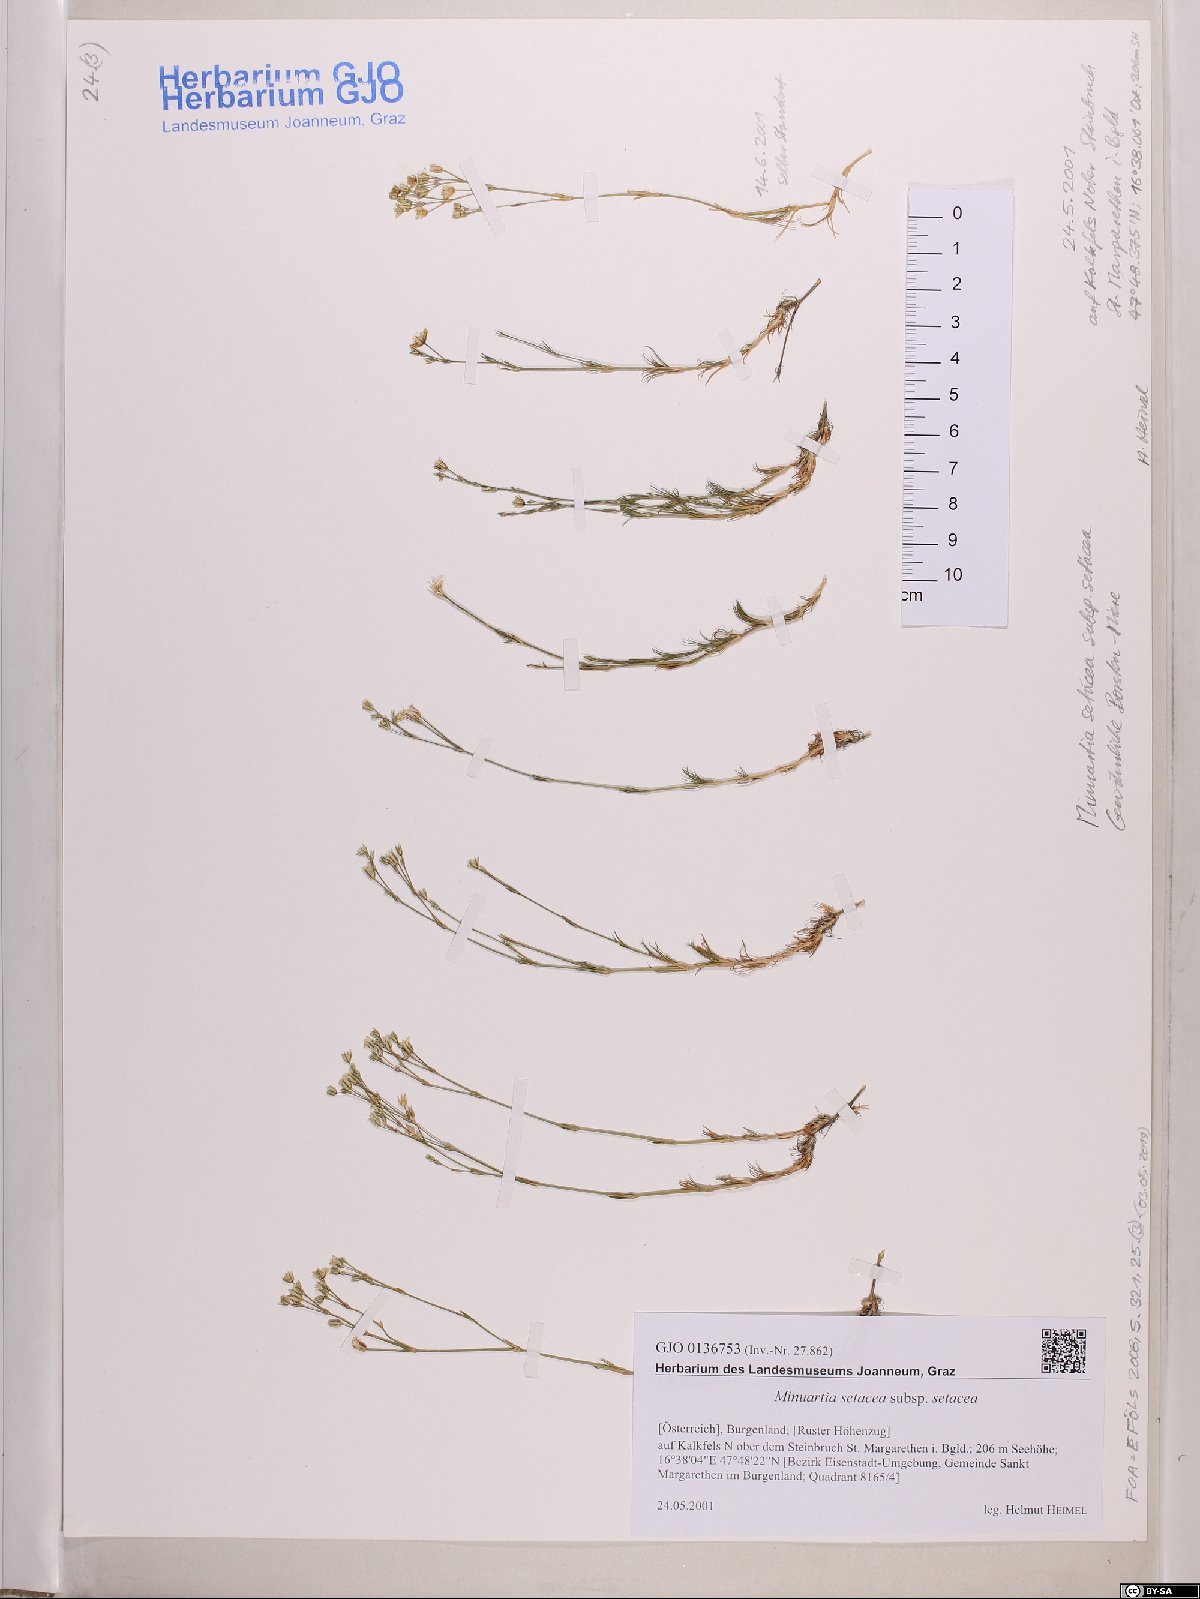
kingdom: Plantae
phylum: Tracheophyta
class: Magnoliopsida
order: Caryophyllales
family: Caryophyllaceae
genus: Minuartia
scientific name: Minuartia setacea
